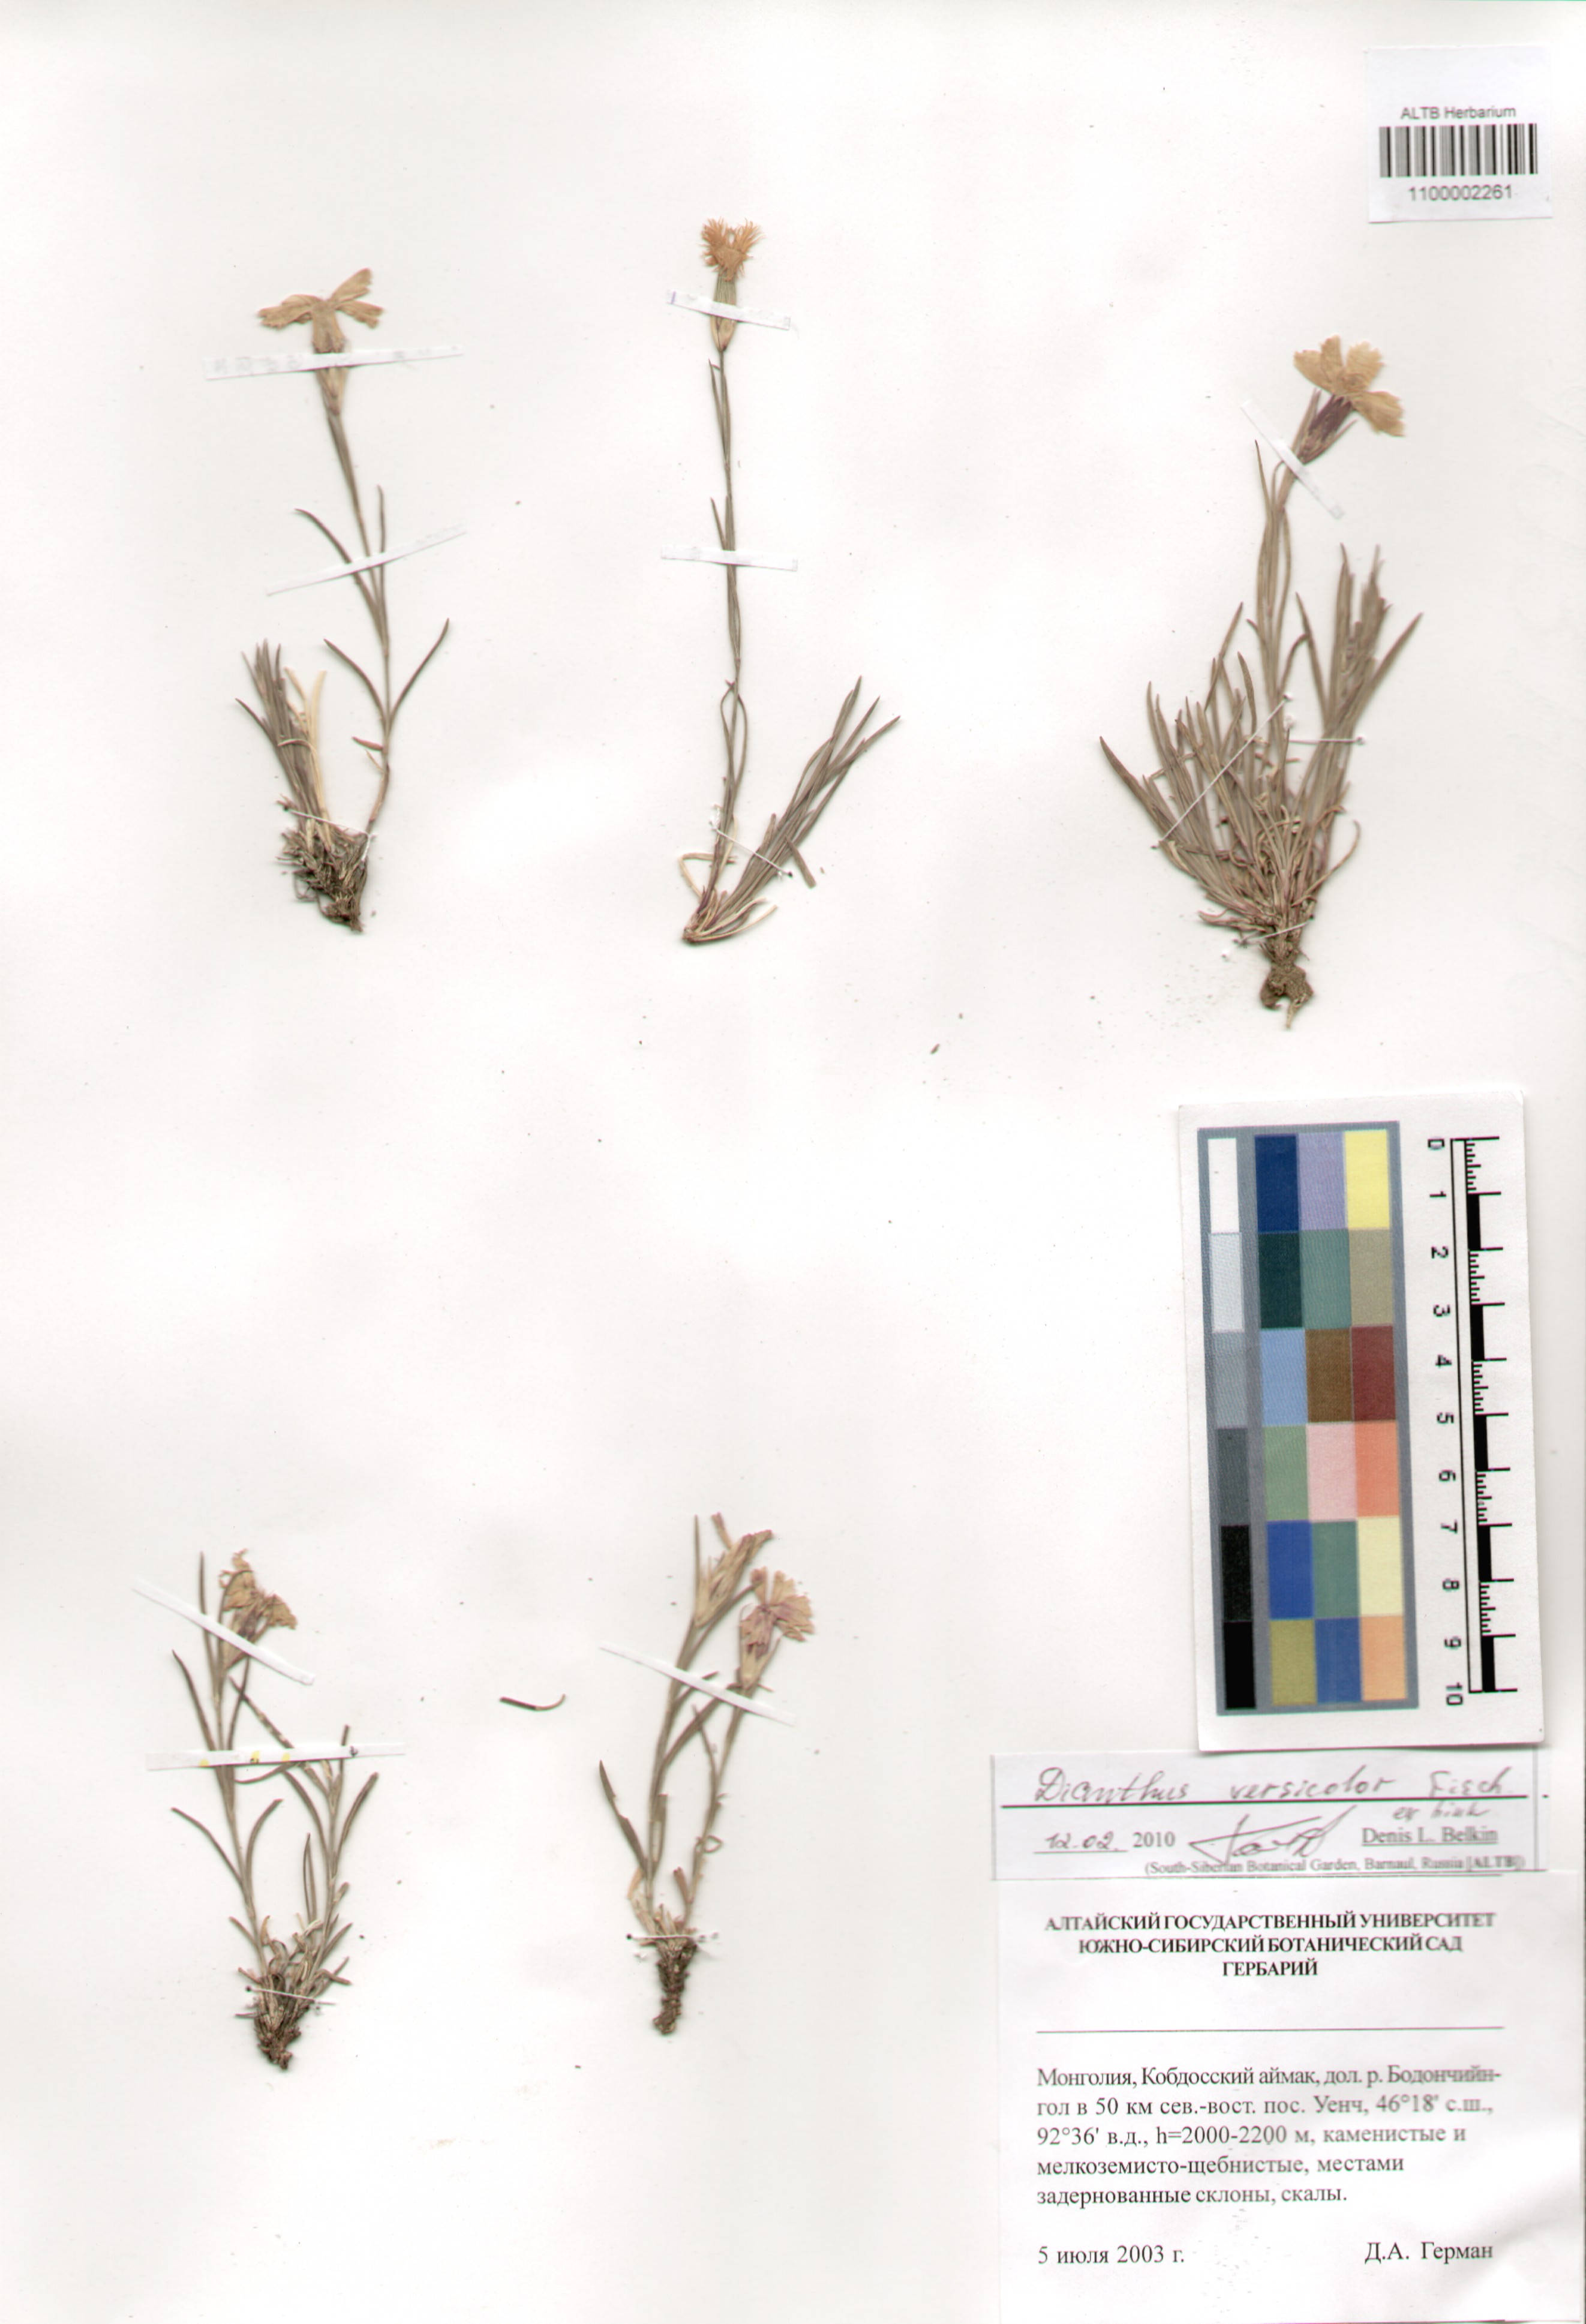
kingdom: Plantae
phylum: Tracheophyta
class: Magnoliopsida
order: Caryophyllales
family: Caryophyllaceae
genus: Dianthus
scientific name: Dianthus chinensis
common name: Rainbow pink
